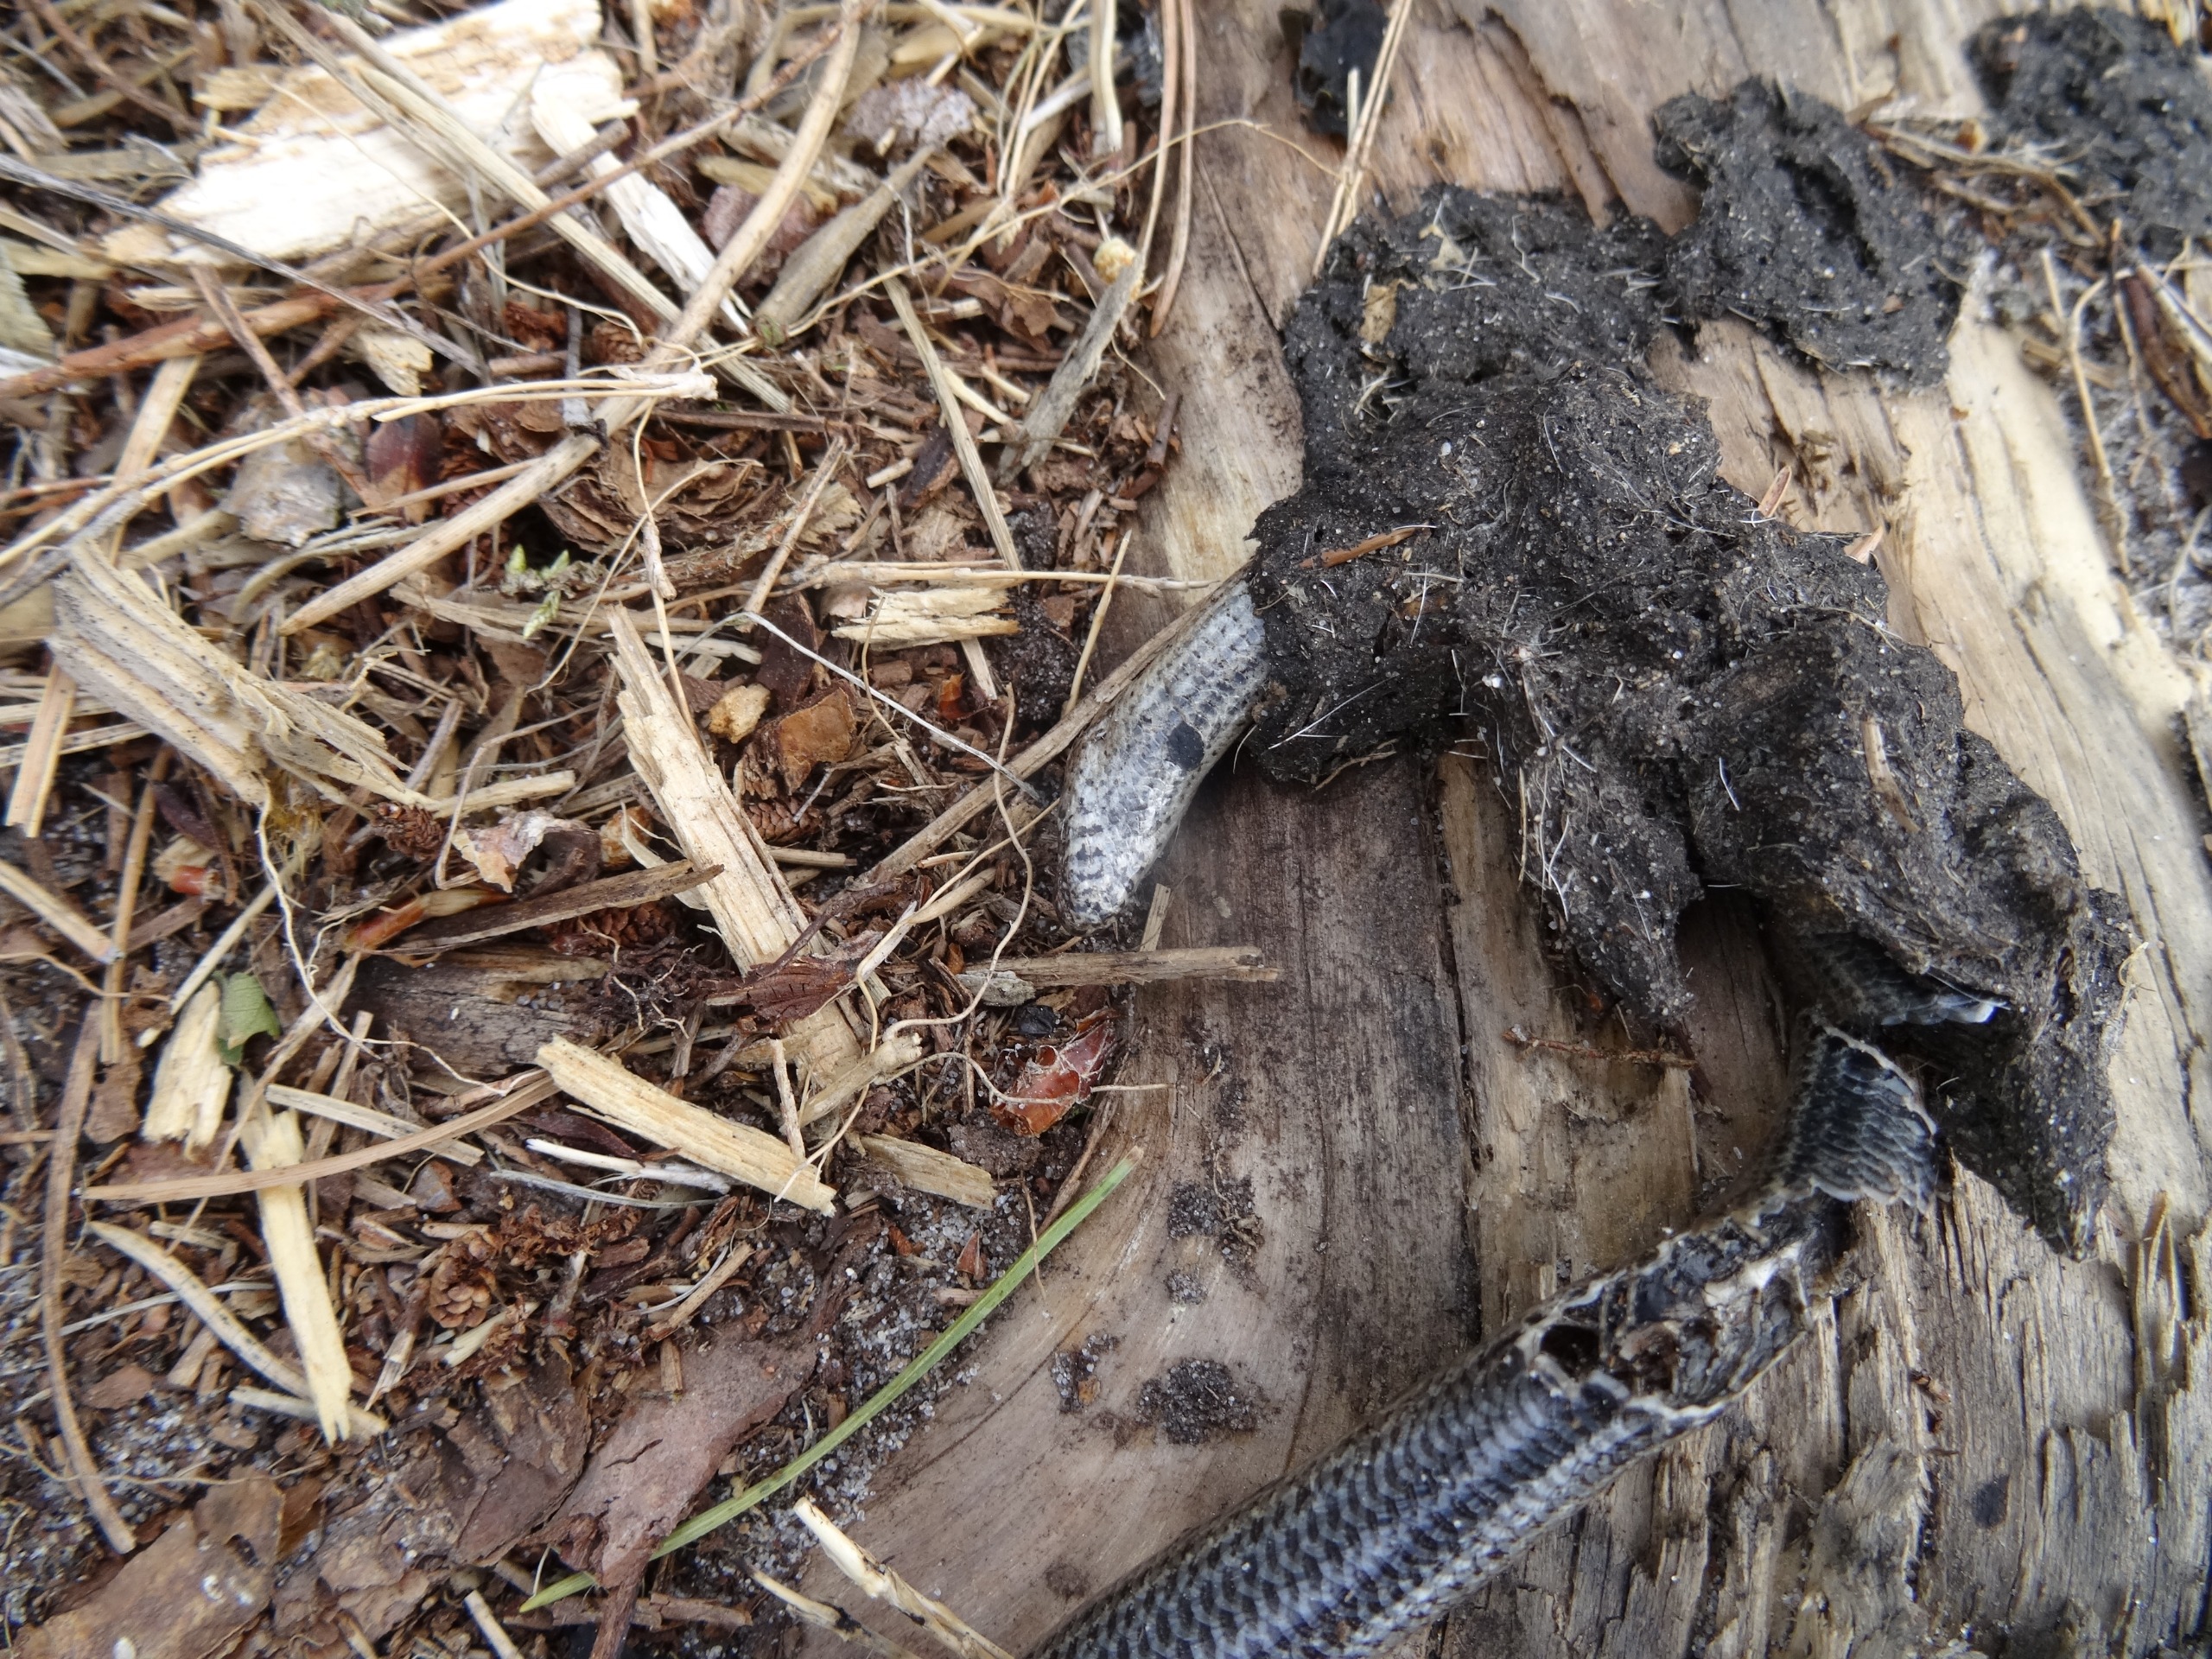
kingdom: Animalia
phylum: Chordata
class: Squamata
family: Anguidae
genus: Anguis
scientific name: Anguis fragilis
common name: Stålorm
